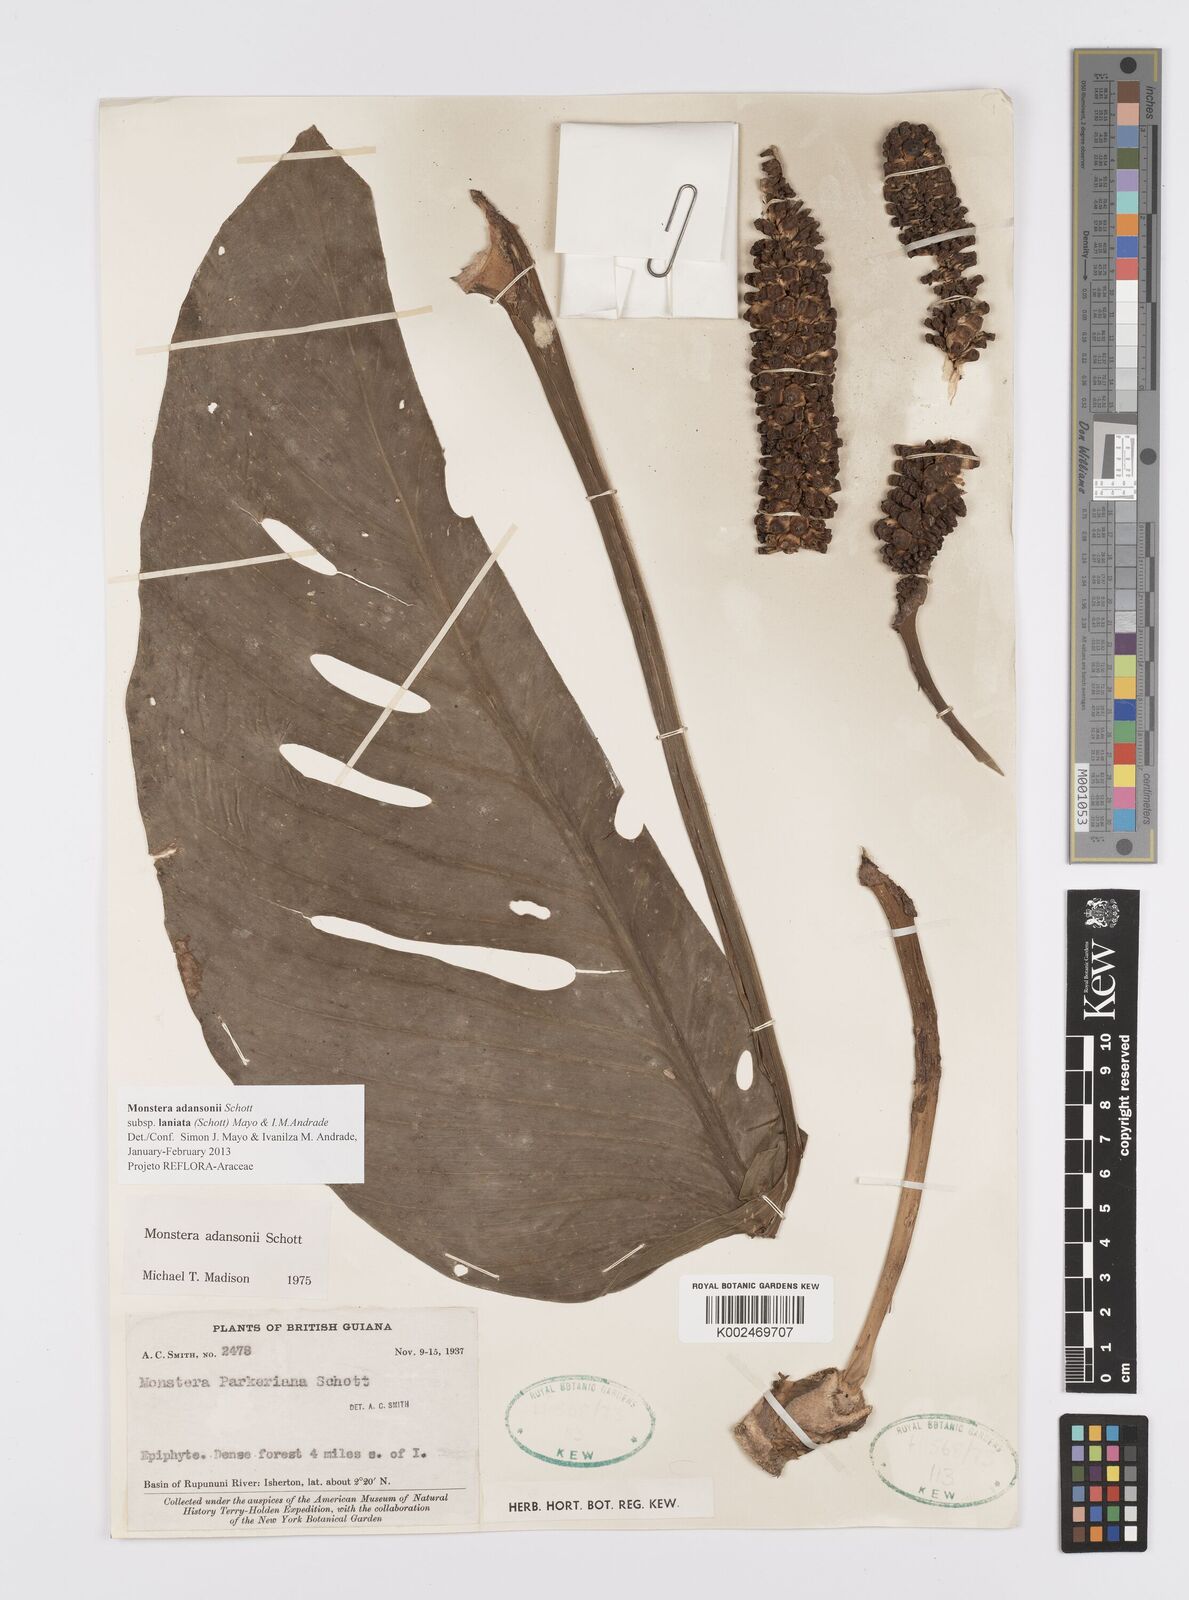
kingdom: Plantae
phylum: Tracheophyta
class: Liliopsida
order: Alismatales
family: Araceae
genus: Monstera
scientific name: Monstera adansonii
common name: Tarovine
